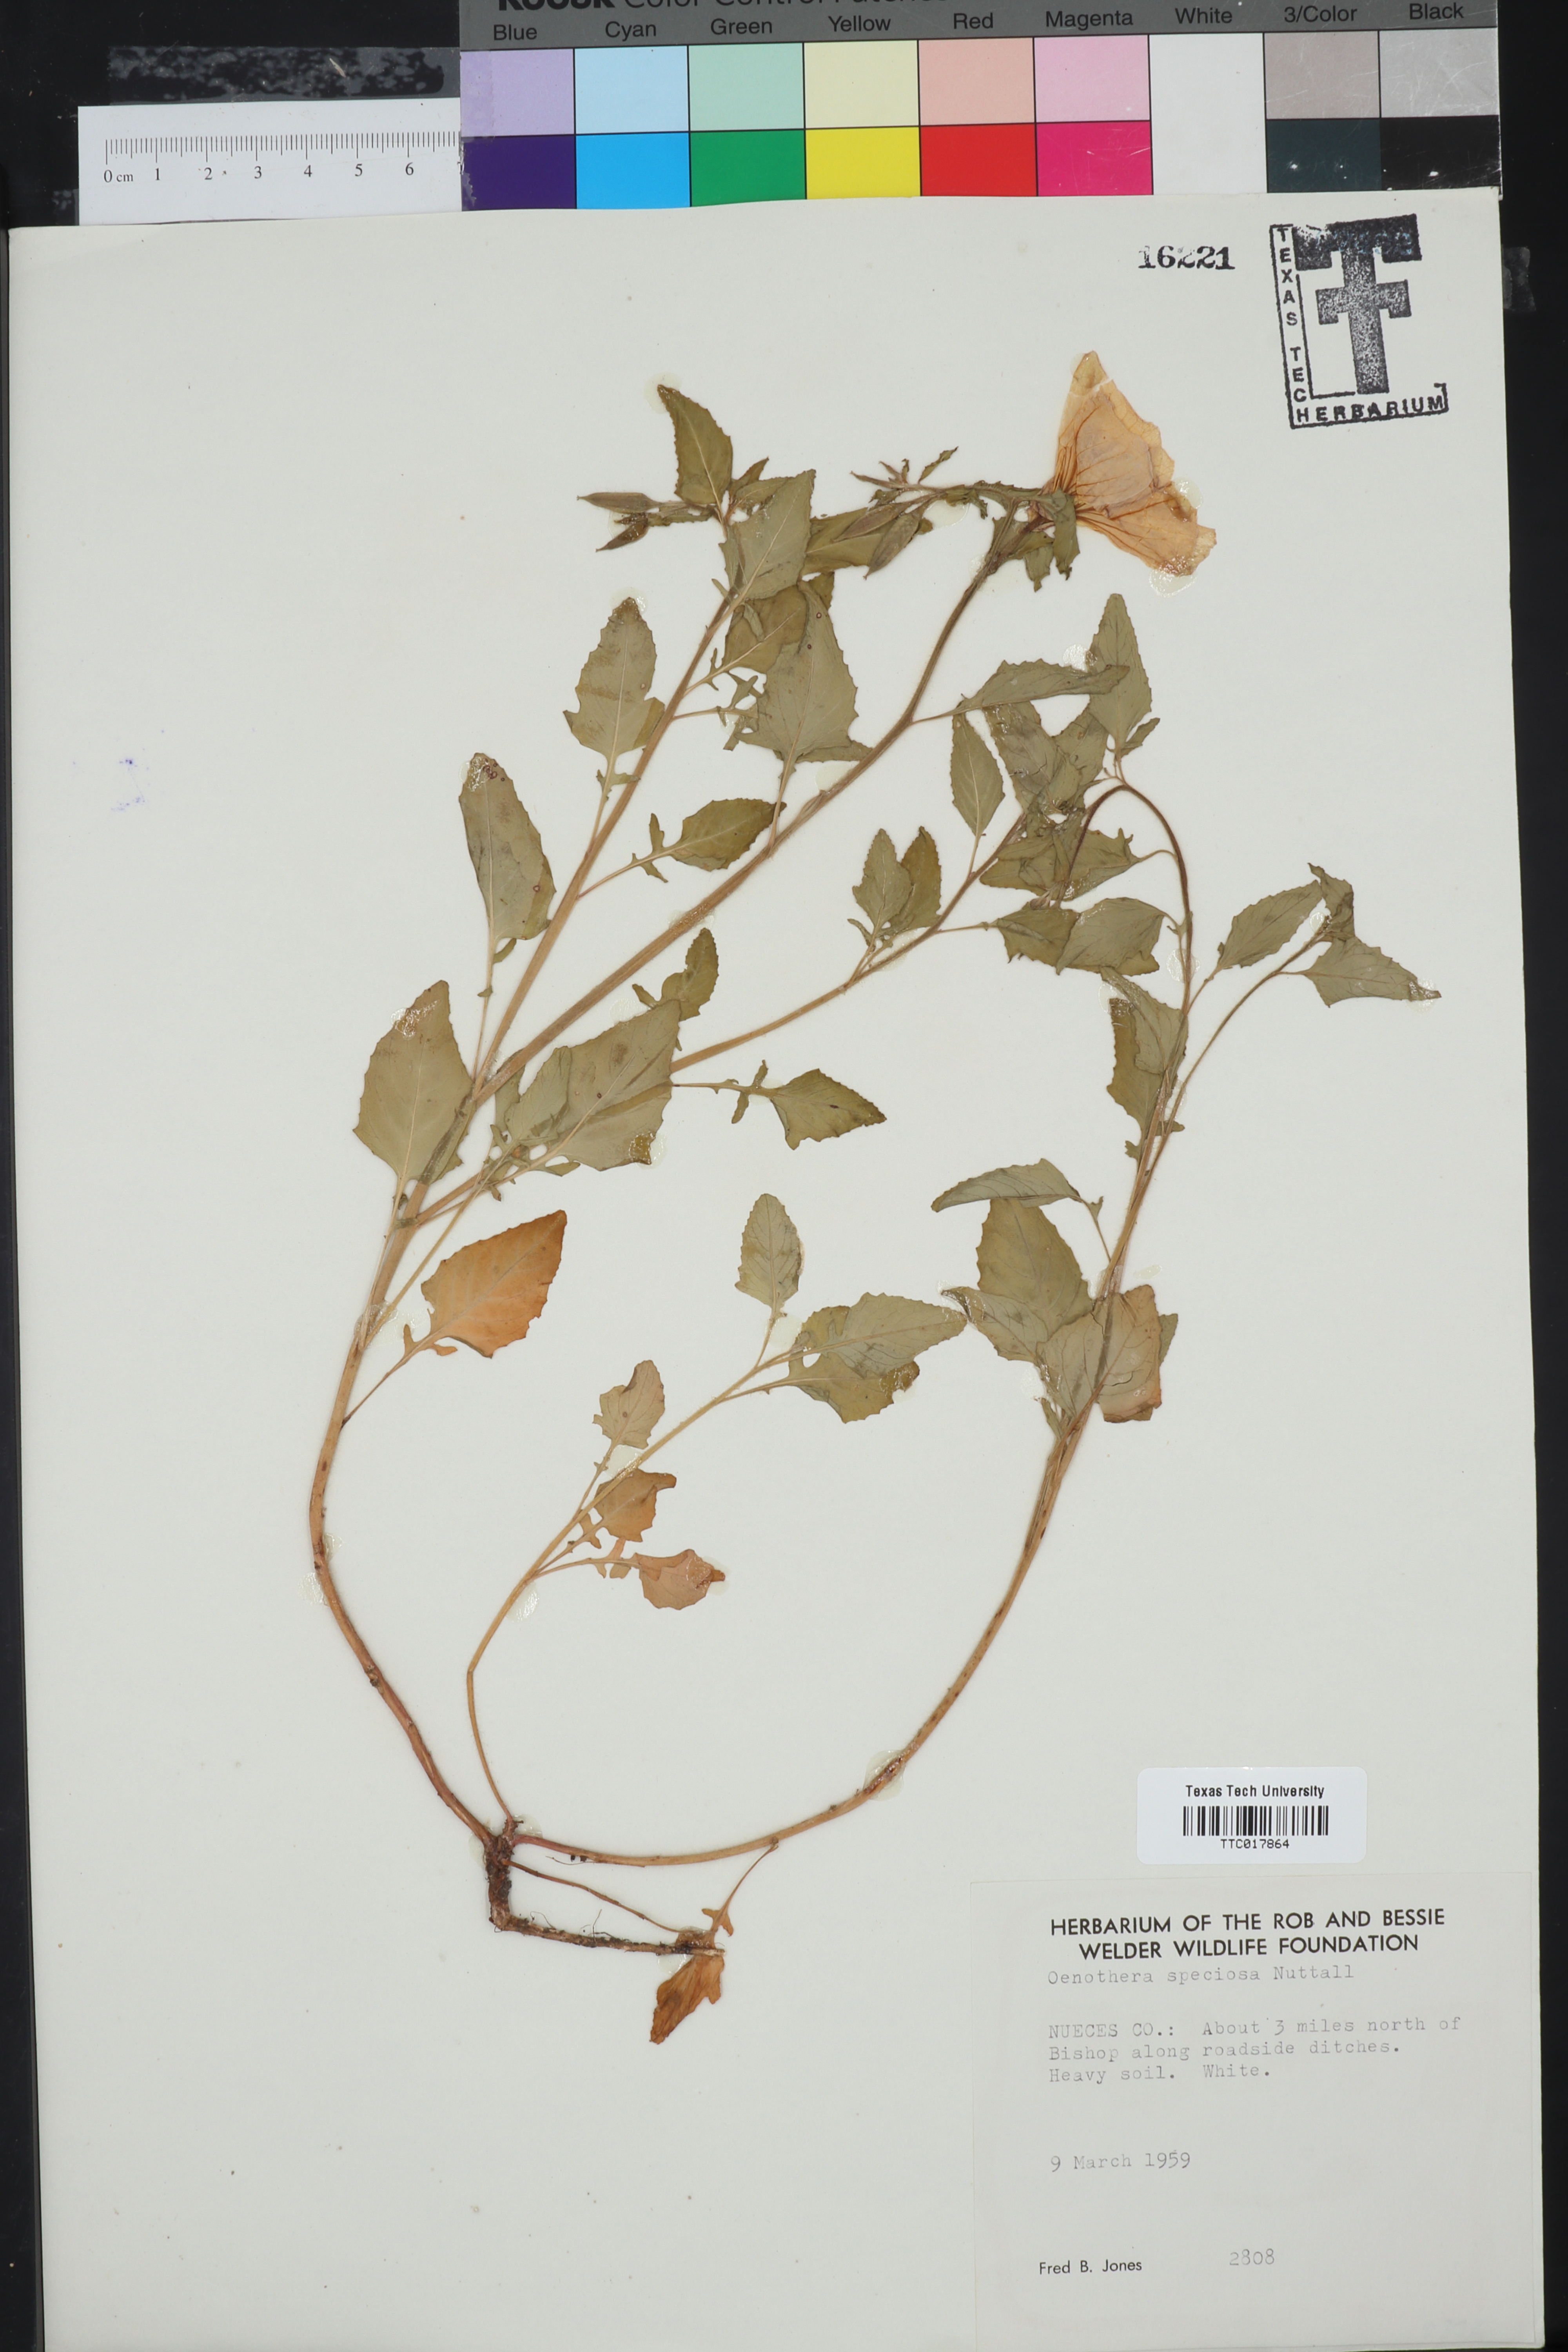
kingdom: Plantae
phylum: Tracheophyta
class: Magnoliopsida
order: Myrtales
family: Onagraceae
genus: Oenothera
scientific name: Oenothera speciosa
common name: White evening-primrose
